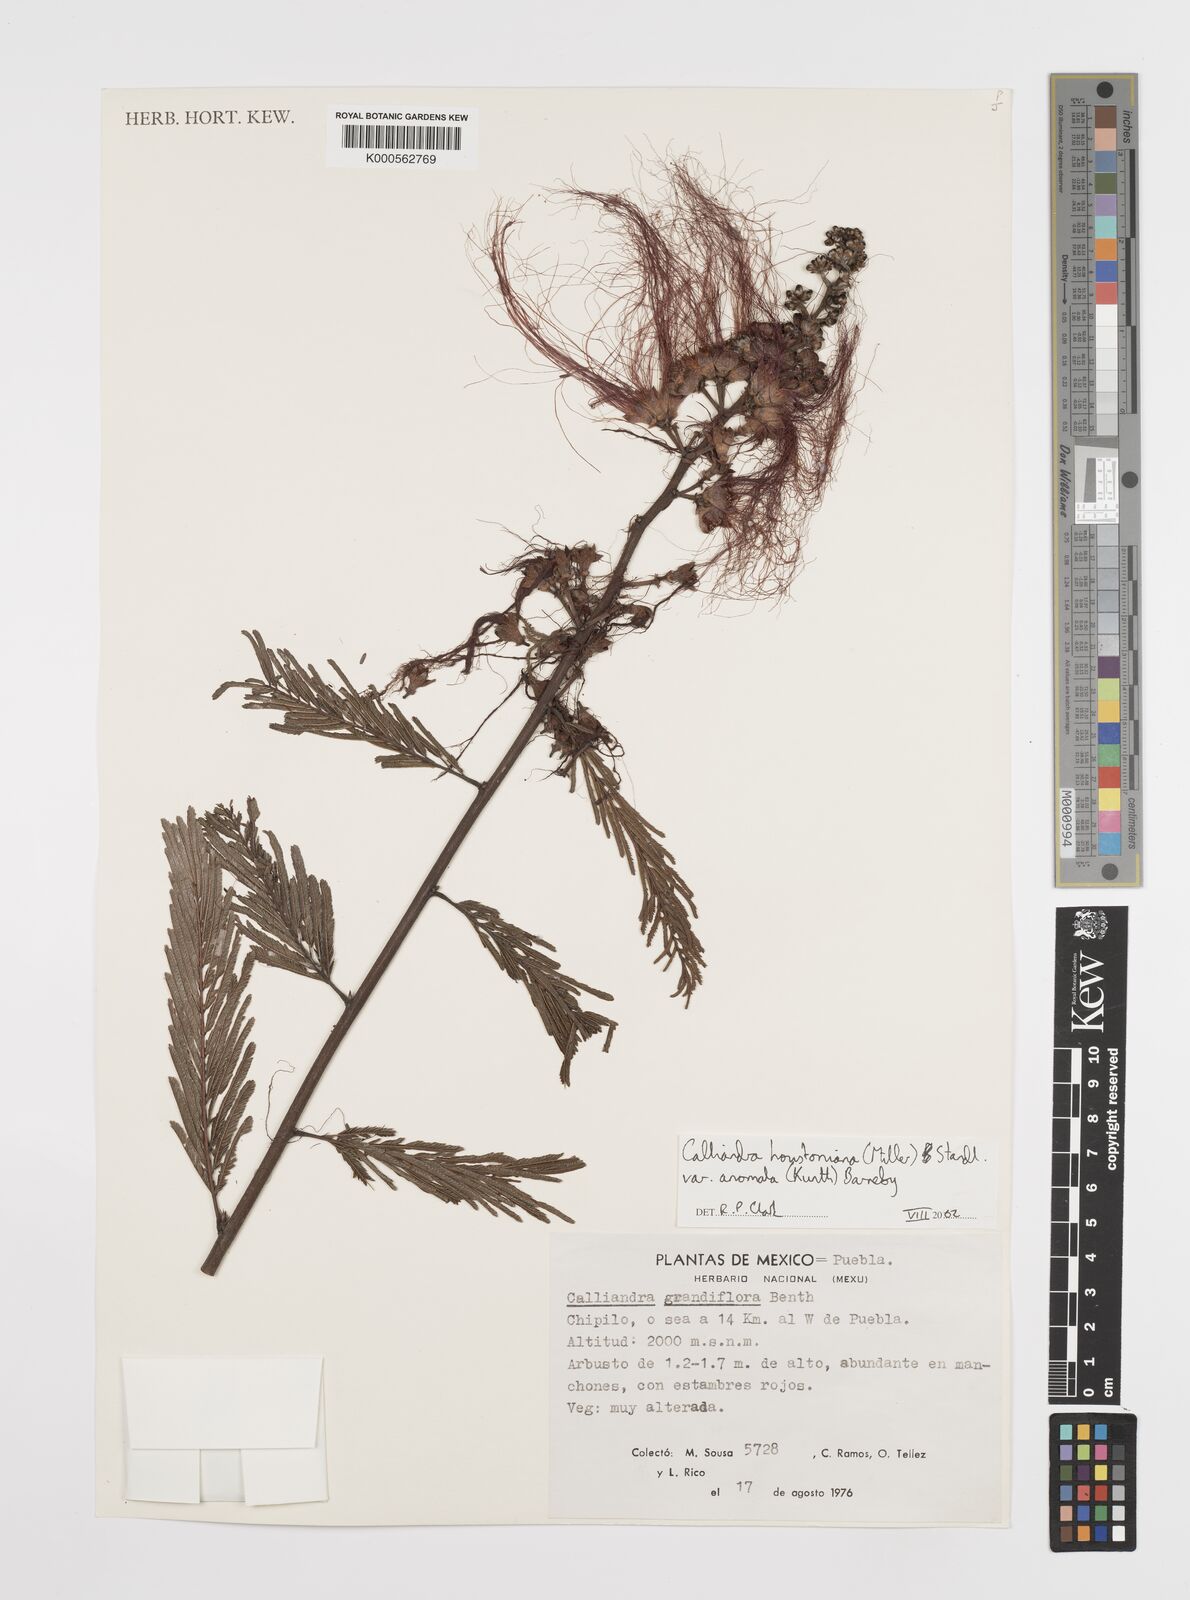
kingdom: Plantae
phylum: Tracheophyta
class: Magnoliopsida
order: Fabales
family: Fabaceae
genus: Calliandra
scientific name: Calliandra houstoniana
